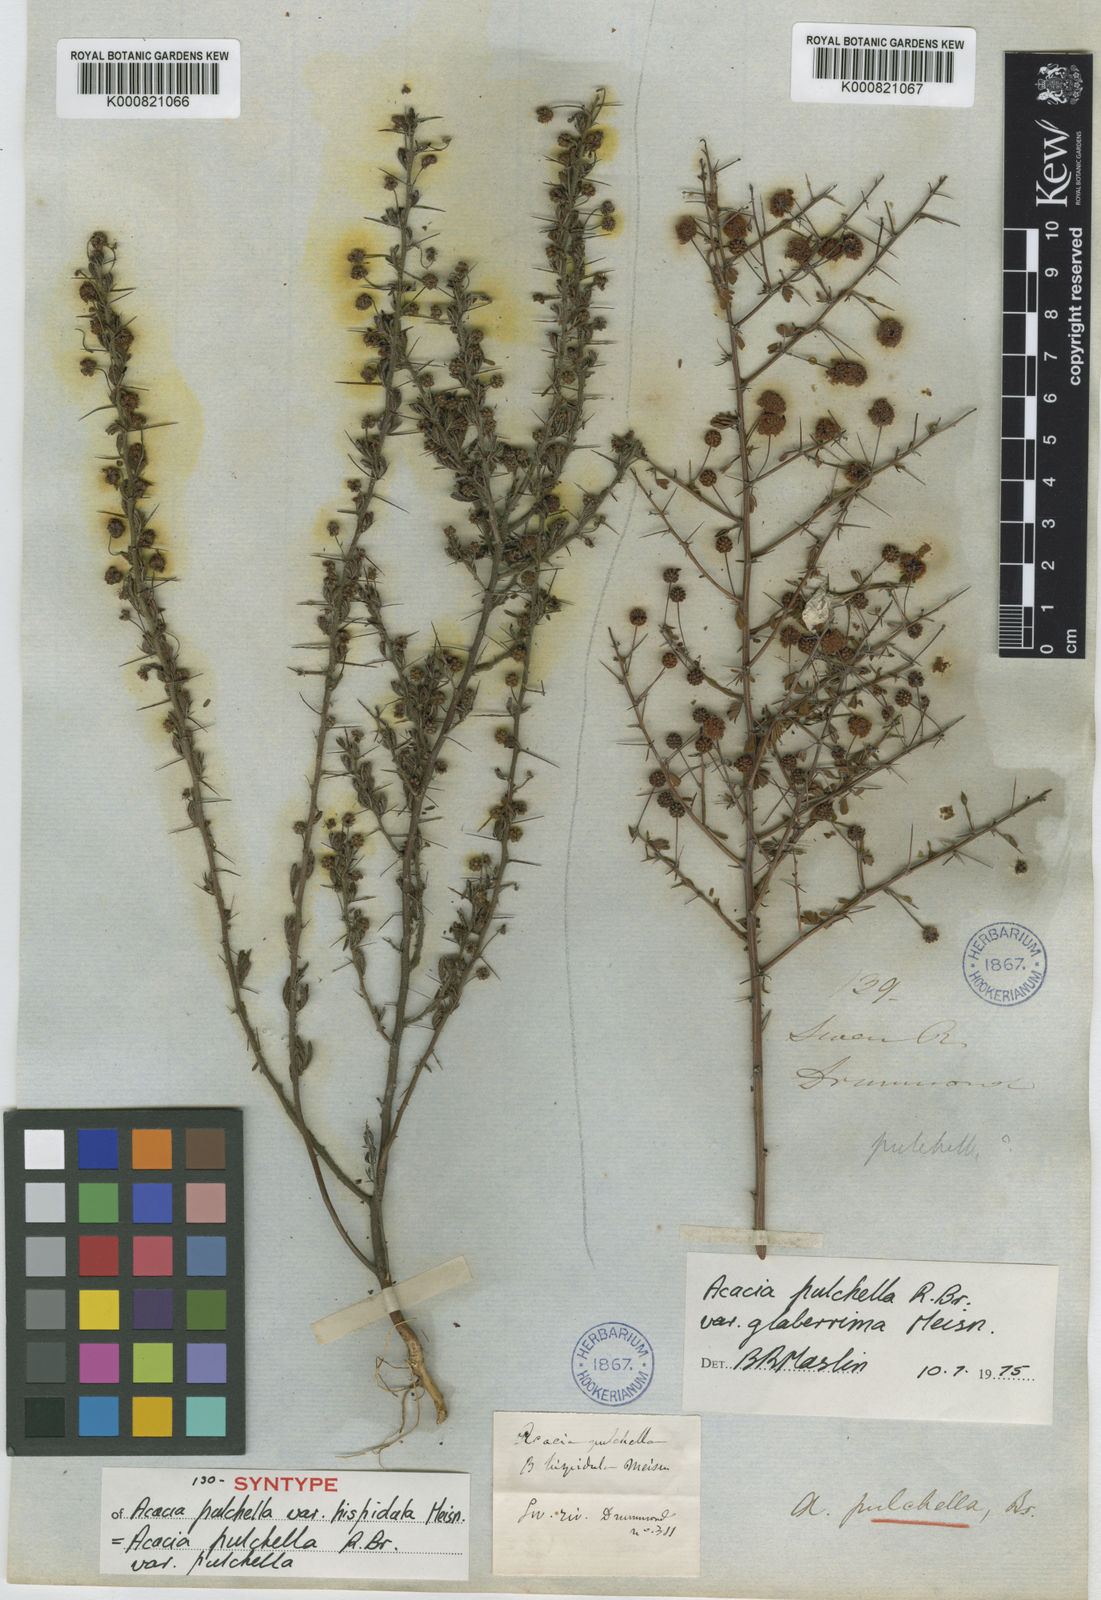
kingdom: Plantae
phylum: Tracheophyta
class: Magnoliopsida
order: Fabales
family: Fabaceae
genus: Acacia
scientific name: Acacia pulchella
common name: Prickly moses
